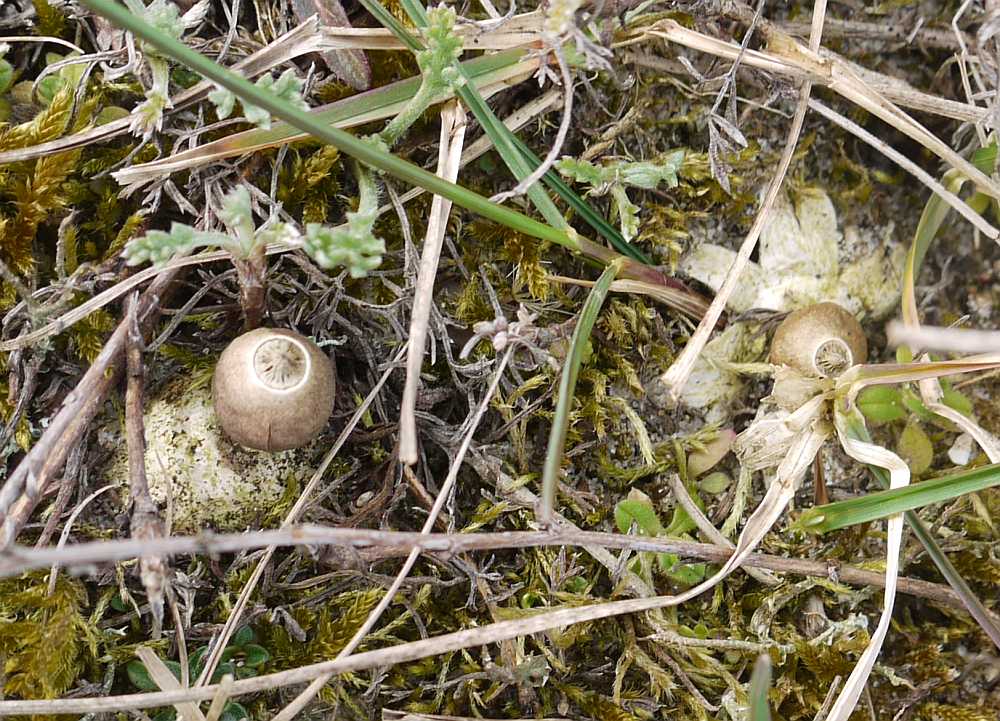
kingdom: Fungi
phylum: Basidiomycota
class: Agaricomycetes
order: Geastrales
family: Geastraceae
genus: Geastrum
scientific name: Geastrum striatum
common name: dværg-stjernebold
